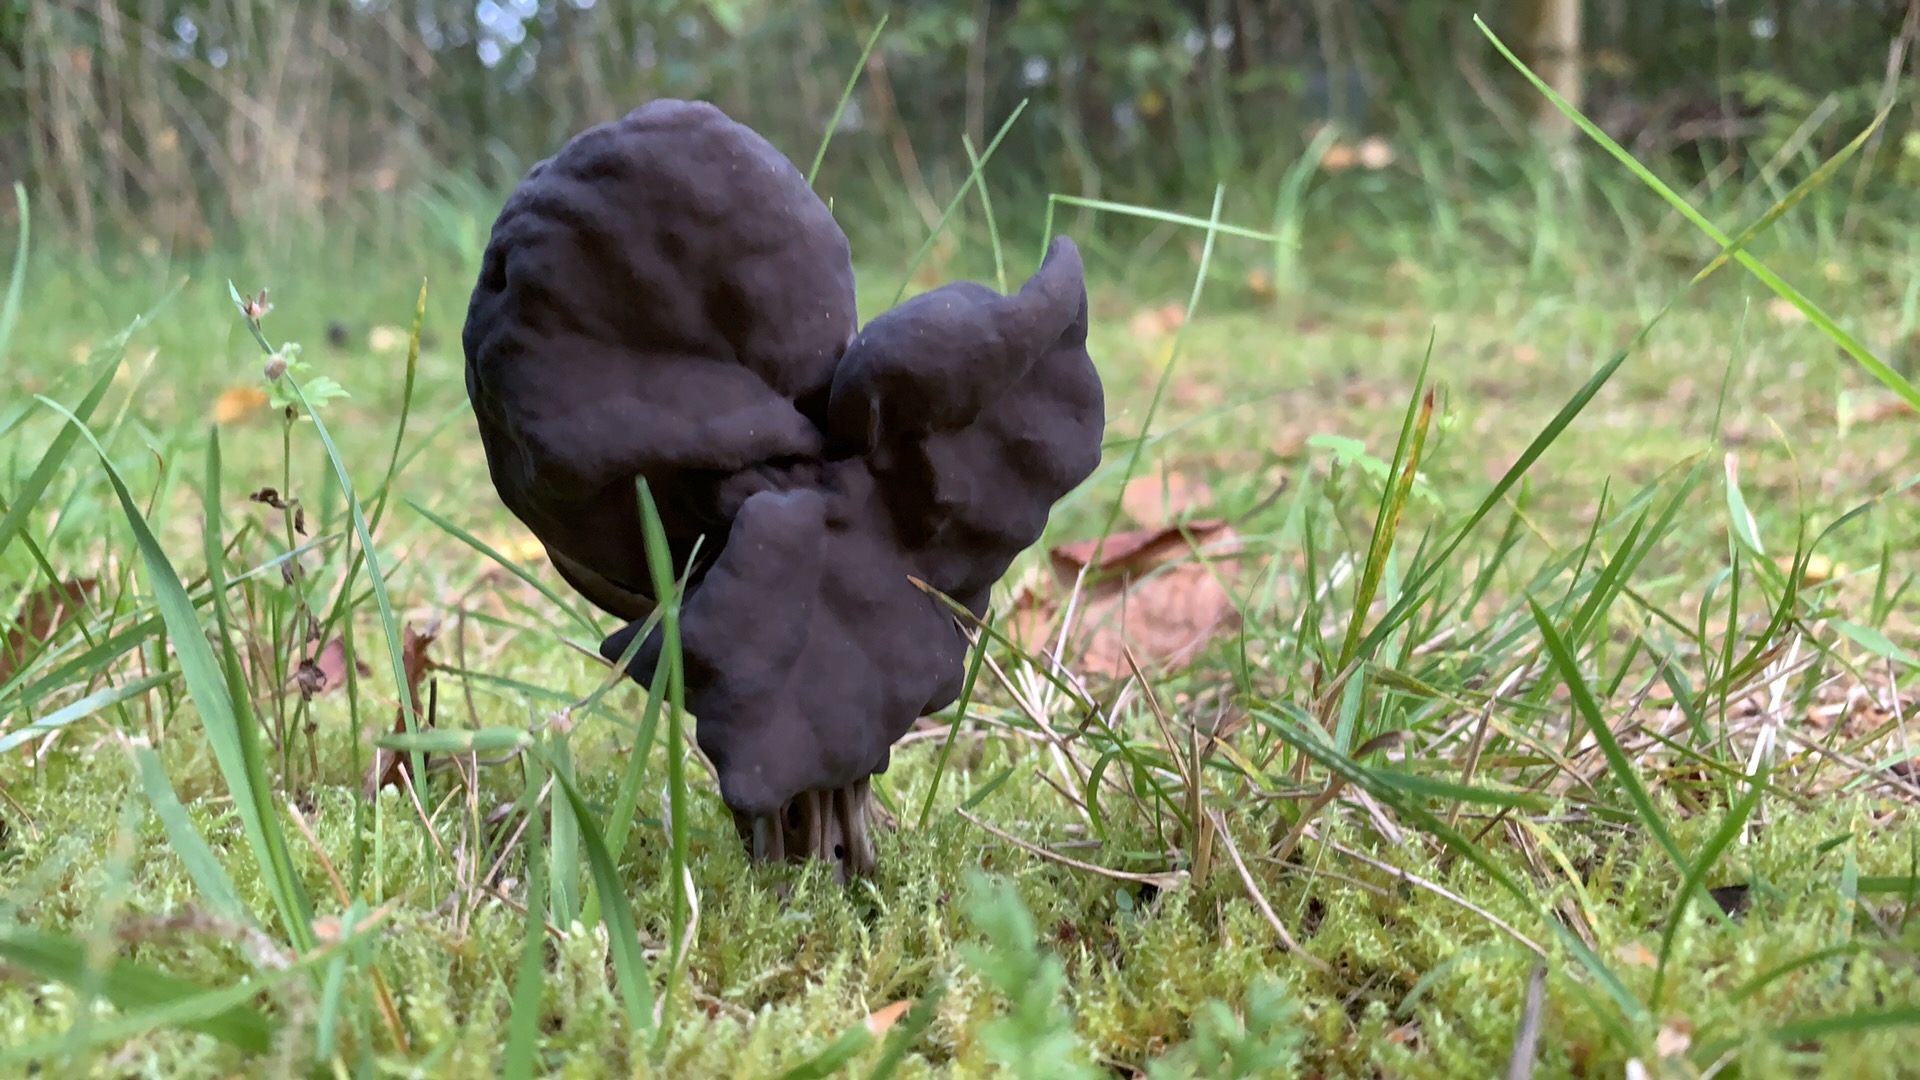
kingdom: Fungi
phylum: Ascomycota
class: Pezizomycetes
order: Pezizales
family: Helvellaceae
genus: Helvella
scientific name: Helvella lacunosa
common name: grubet foldhat
